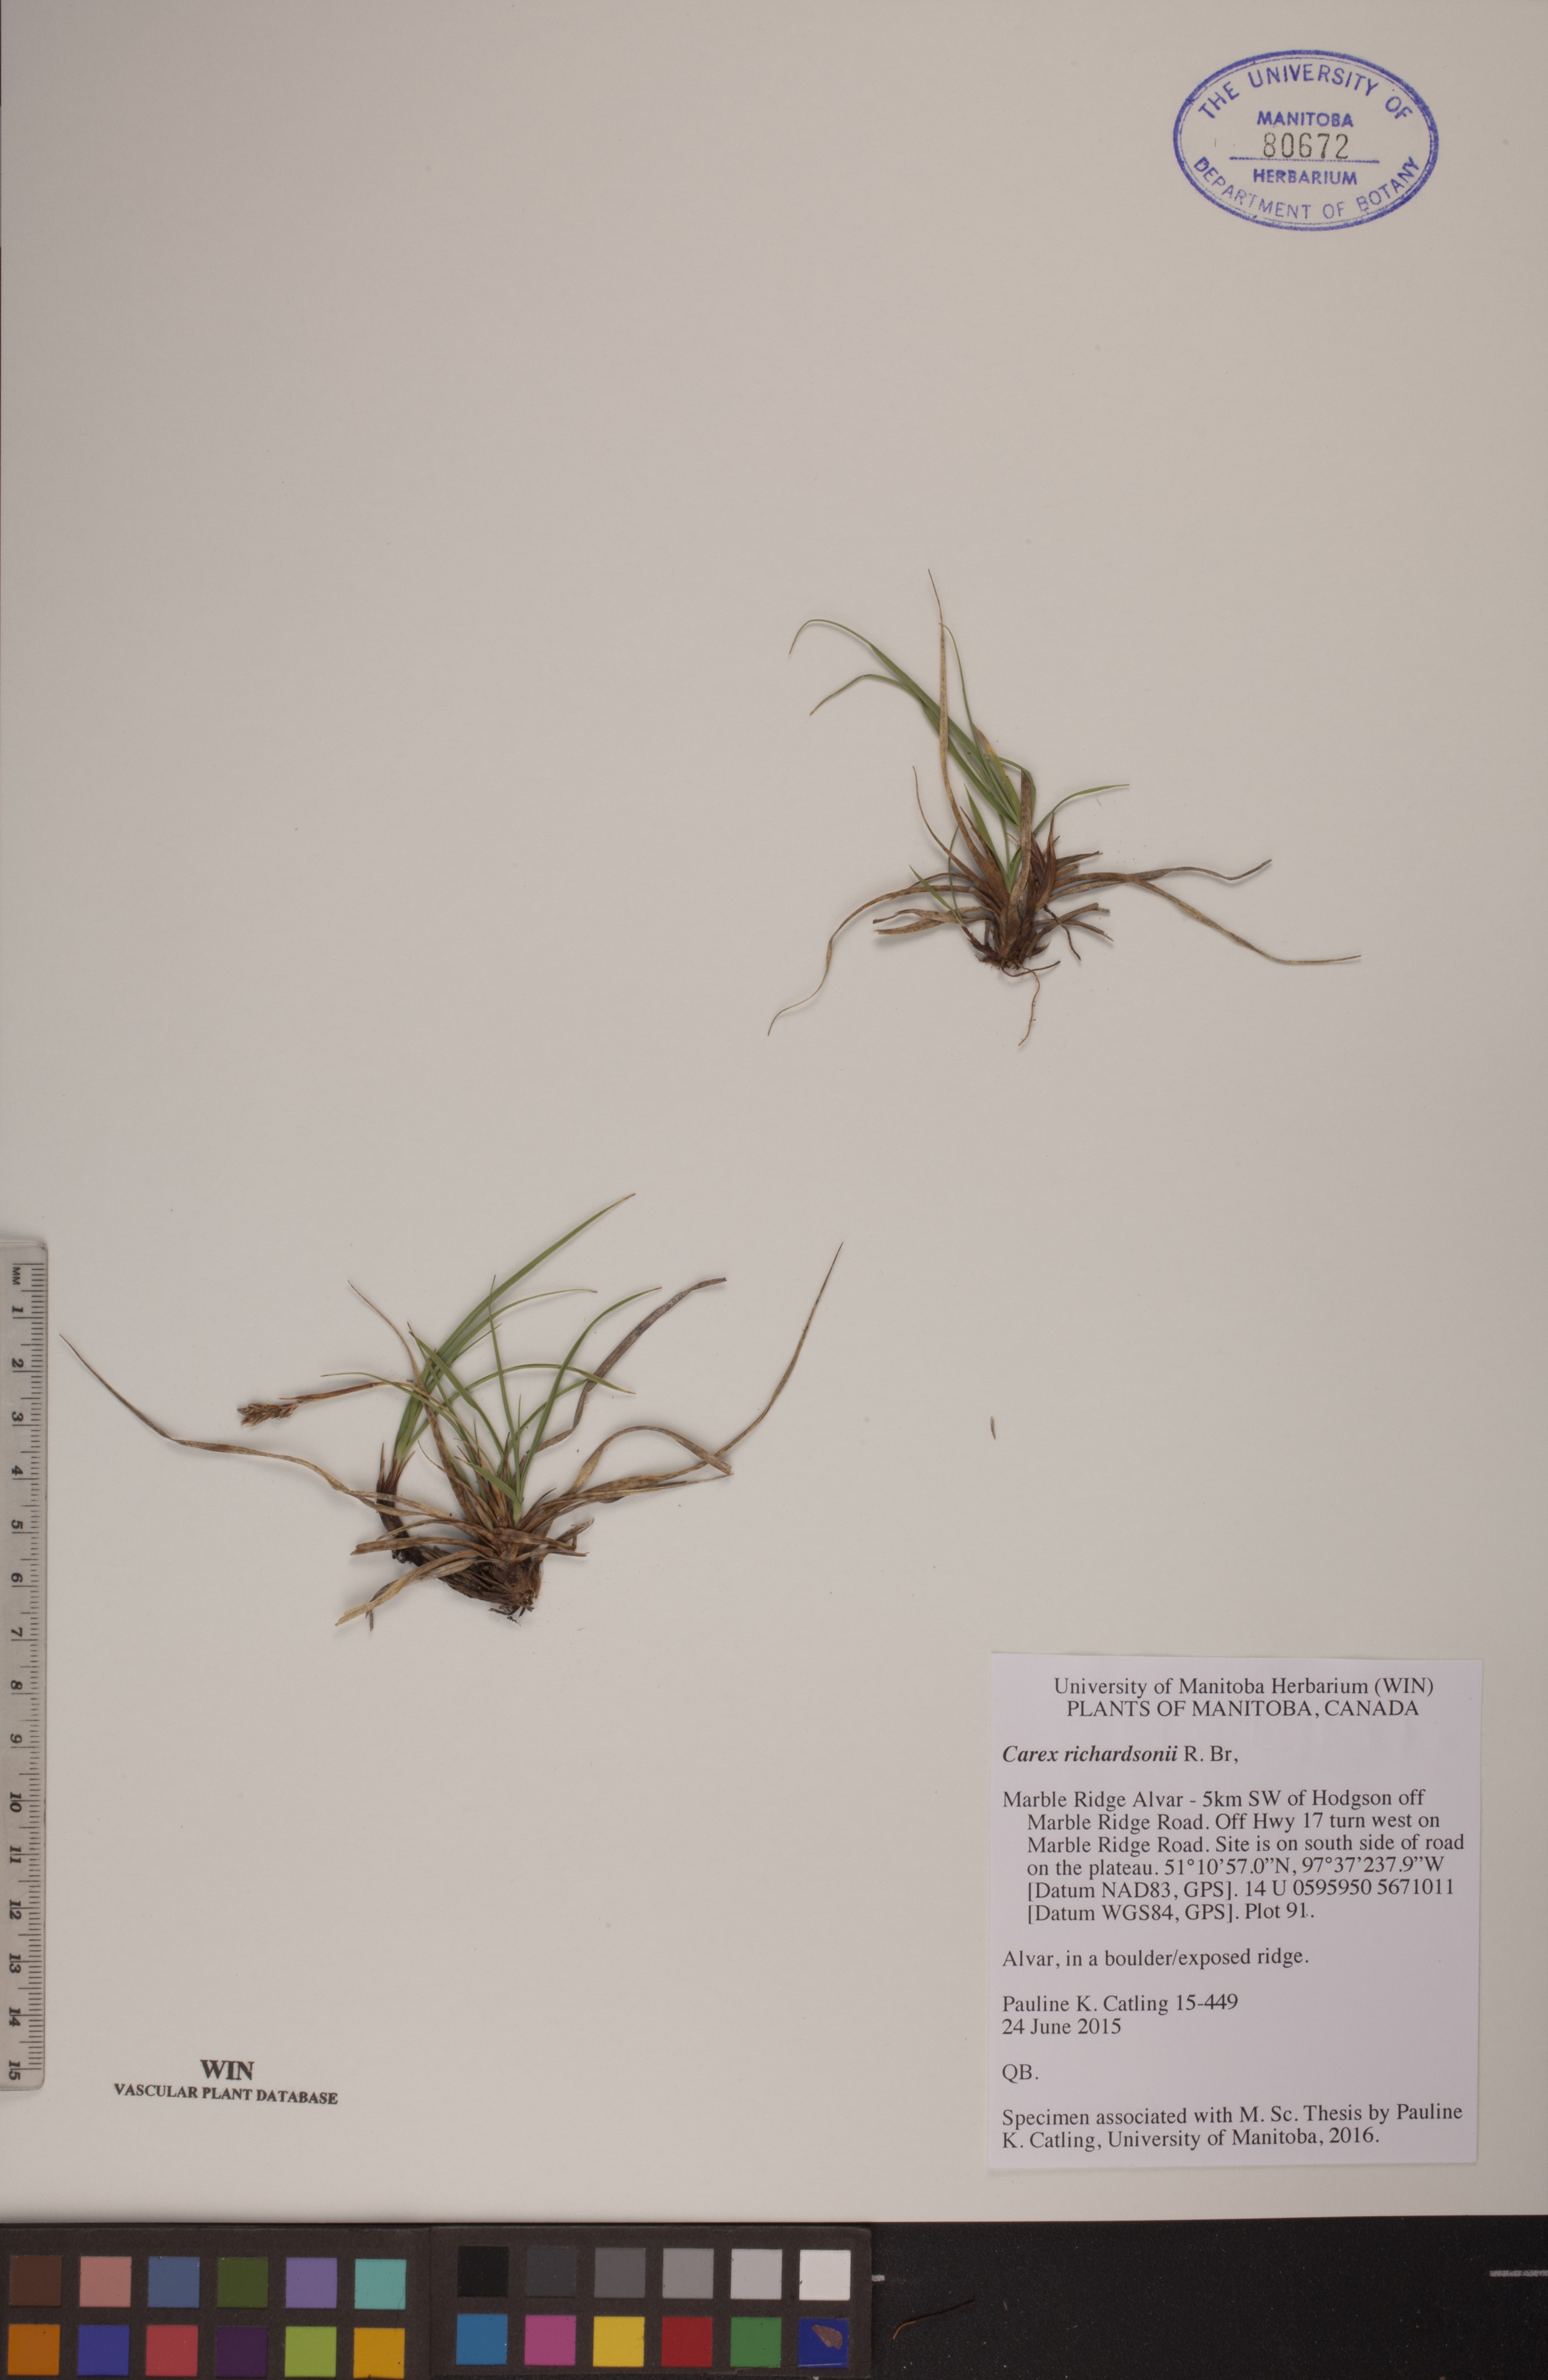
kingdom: Plantae
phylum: Tracheophyta
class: Liliopsida
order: Poales
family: Cyperaceae
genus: Carex
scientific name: Carex richardsonii
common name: Prairie hummock sedge
